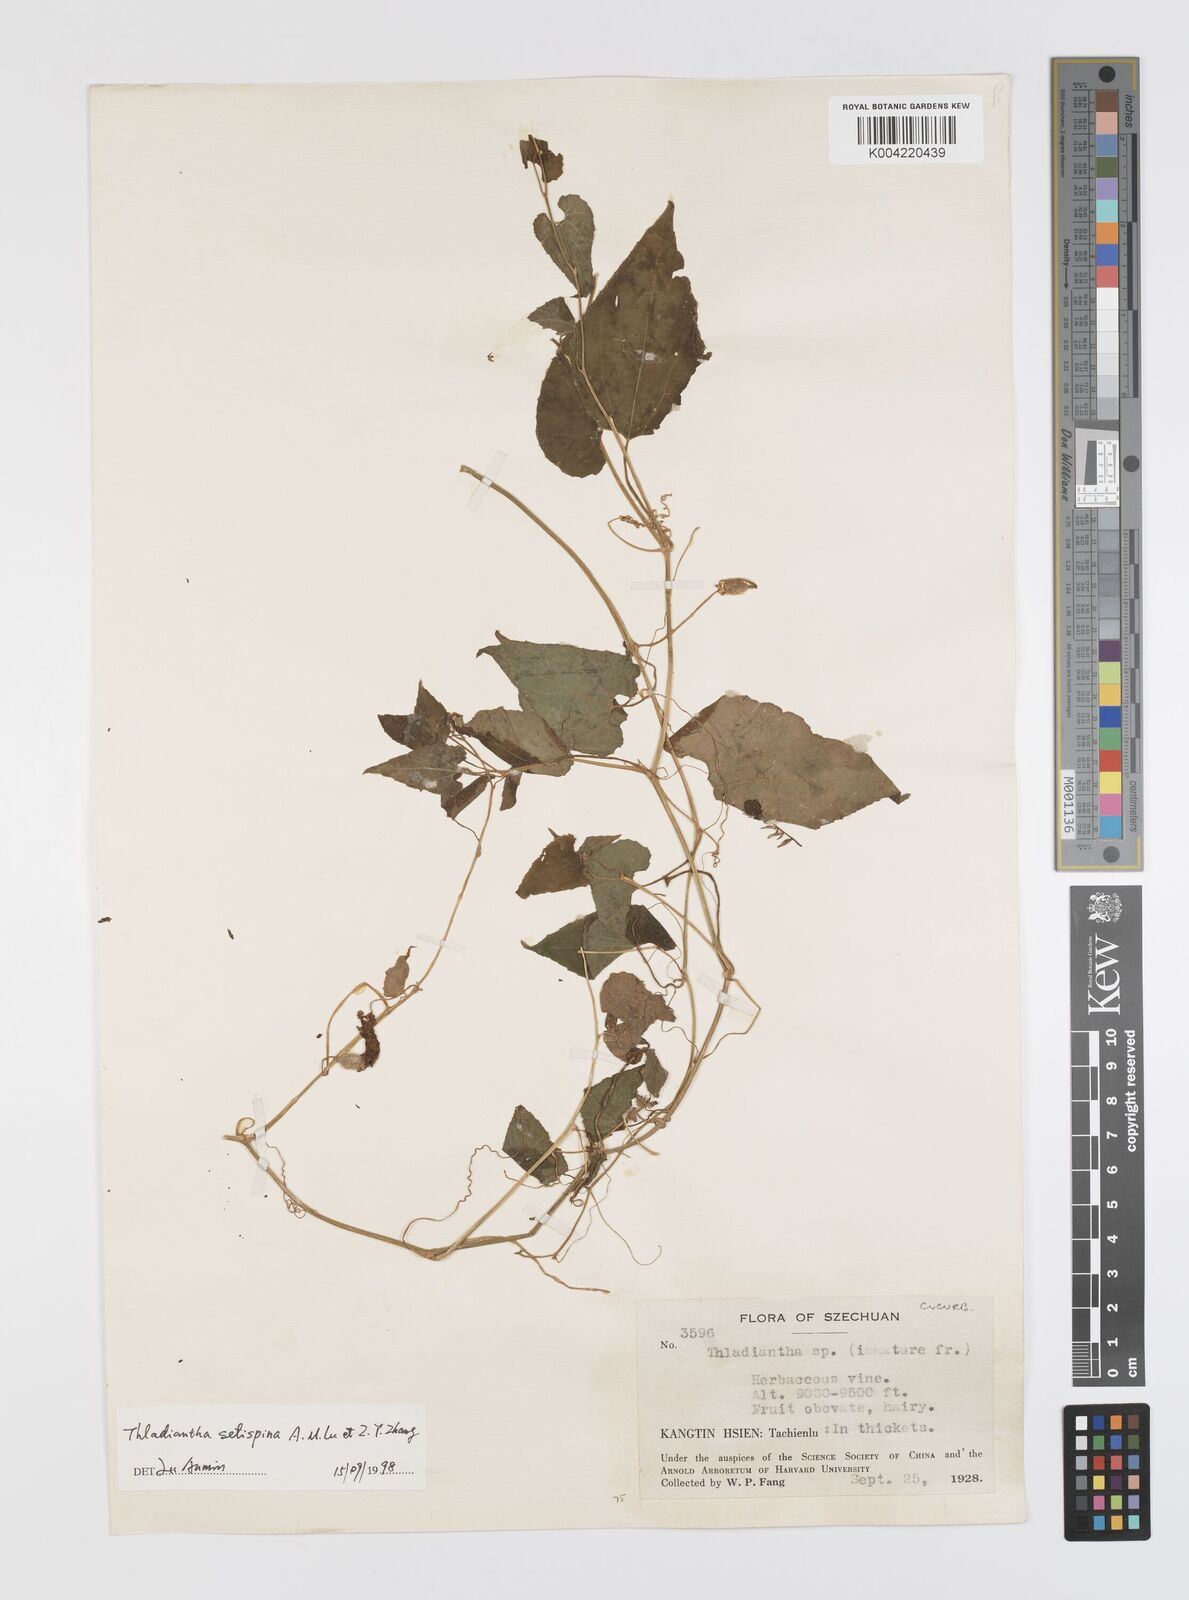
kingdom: Plantae
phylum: Tracheophyta
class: Magnoliopsida
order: Cucurbitales
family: Cucurbitaceae
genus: Thladiantha
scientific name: Thladiantha setispina
